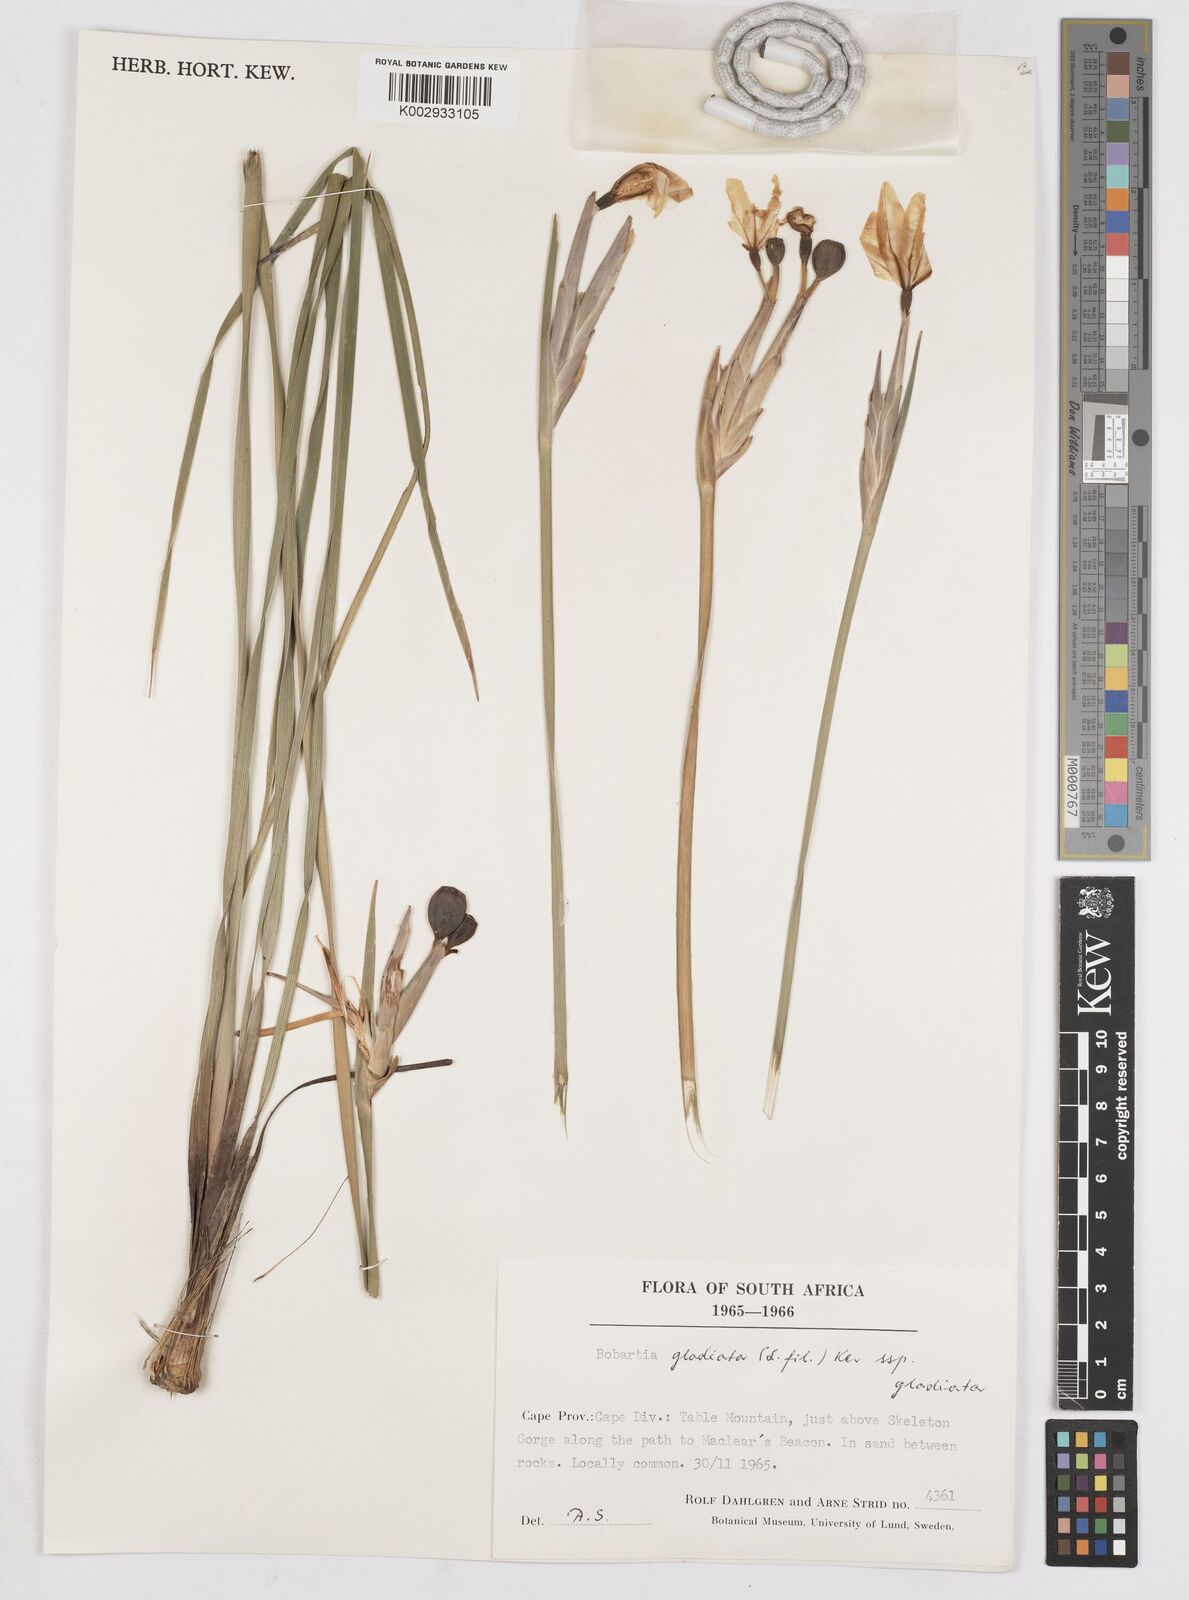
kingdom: Plantae
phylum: Tracheophyta
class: Liliopsida
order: Asparagales
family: Iridaceae
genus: Bobartia
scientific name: Bobartia gladiata
